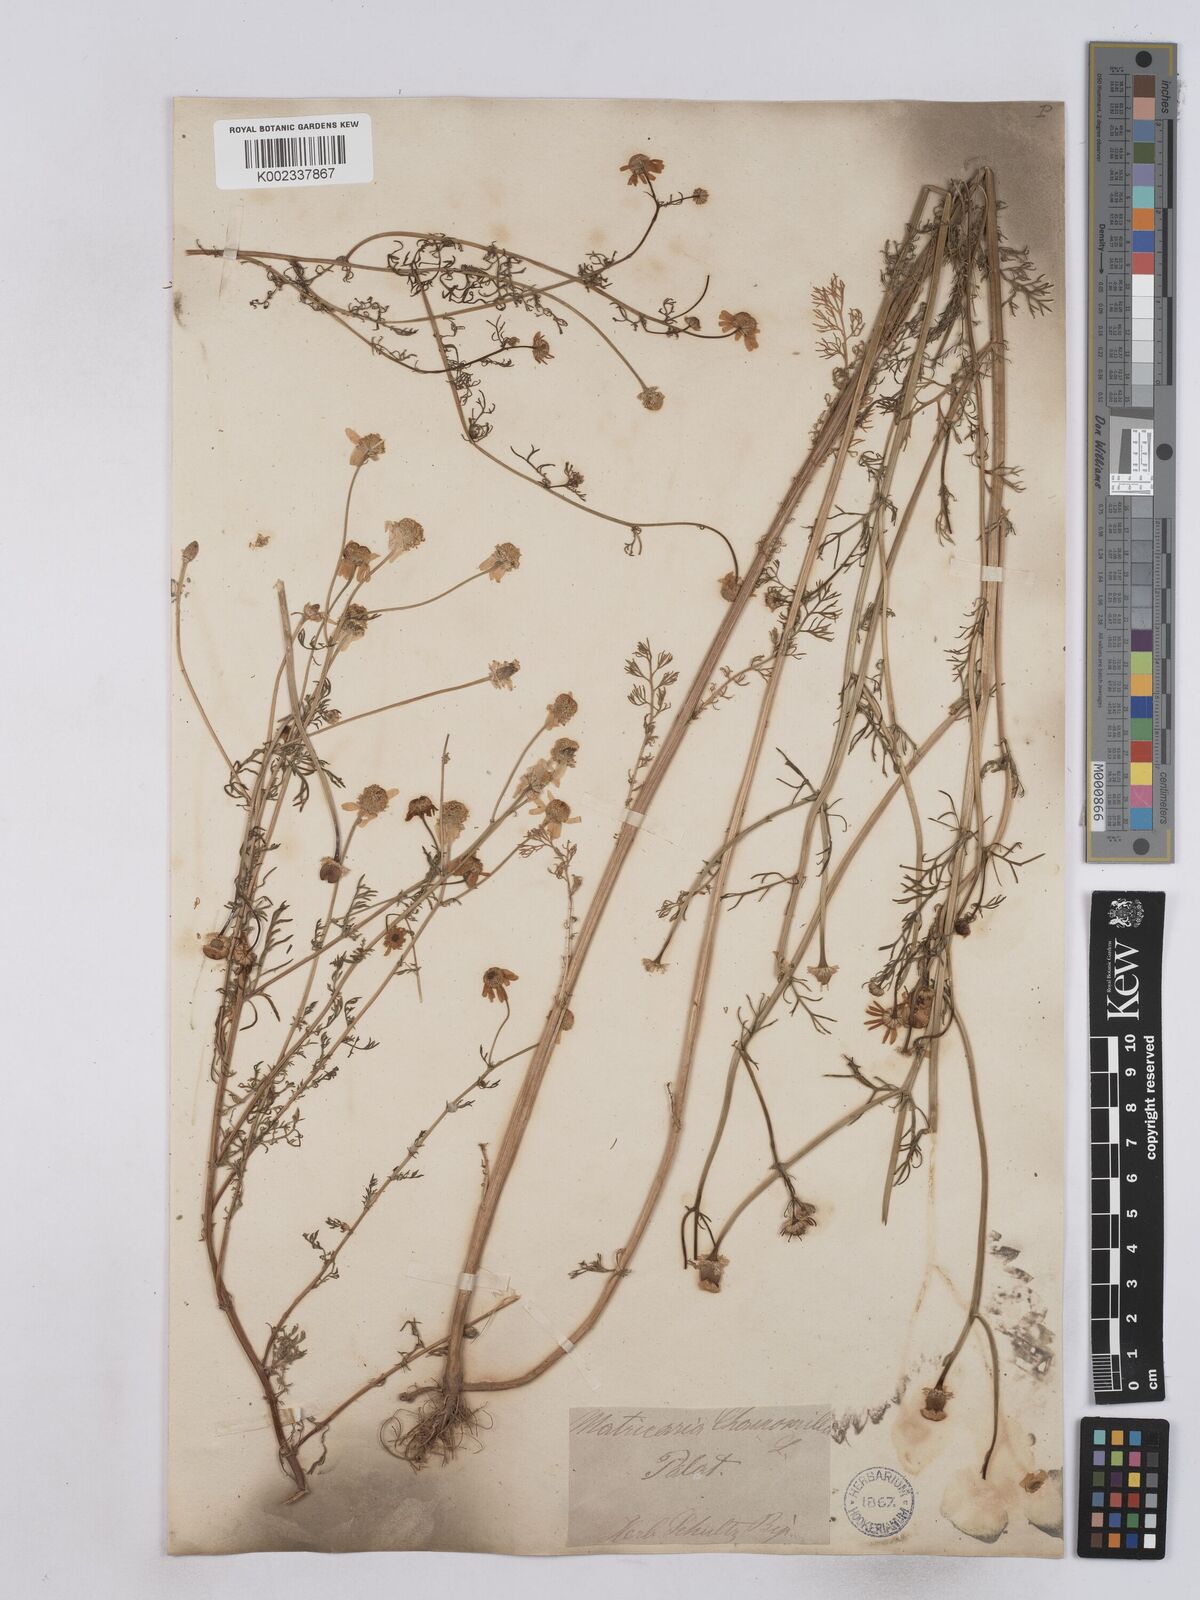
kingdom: Plantae
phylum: Tracheophyta
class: Magnoliopsida
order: Asterales
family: Asteraceae
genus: Matricaria
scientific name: Matricaria chamomilla
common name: Scented mayweed
